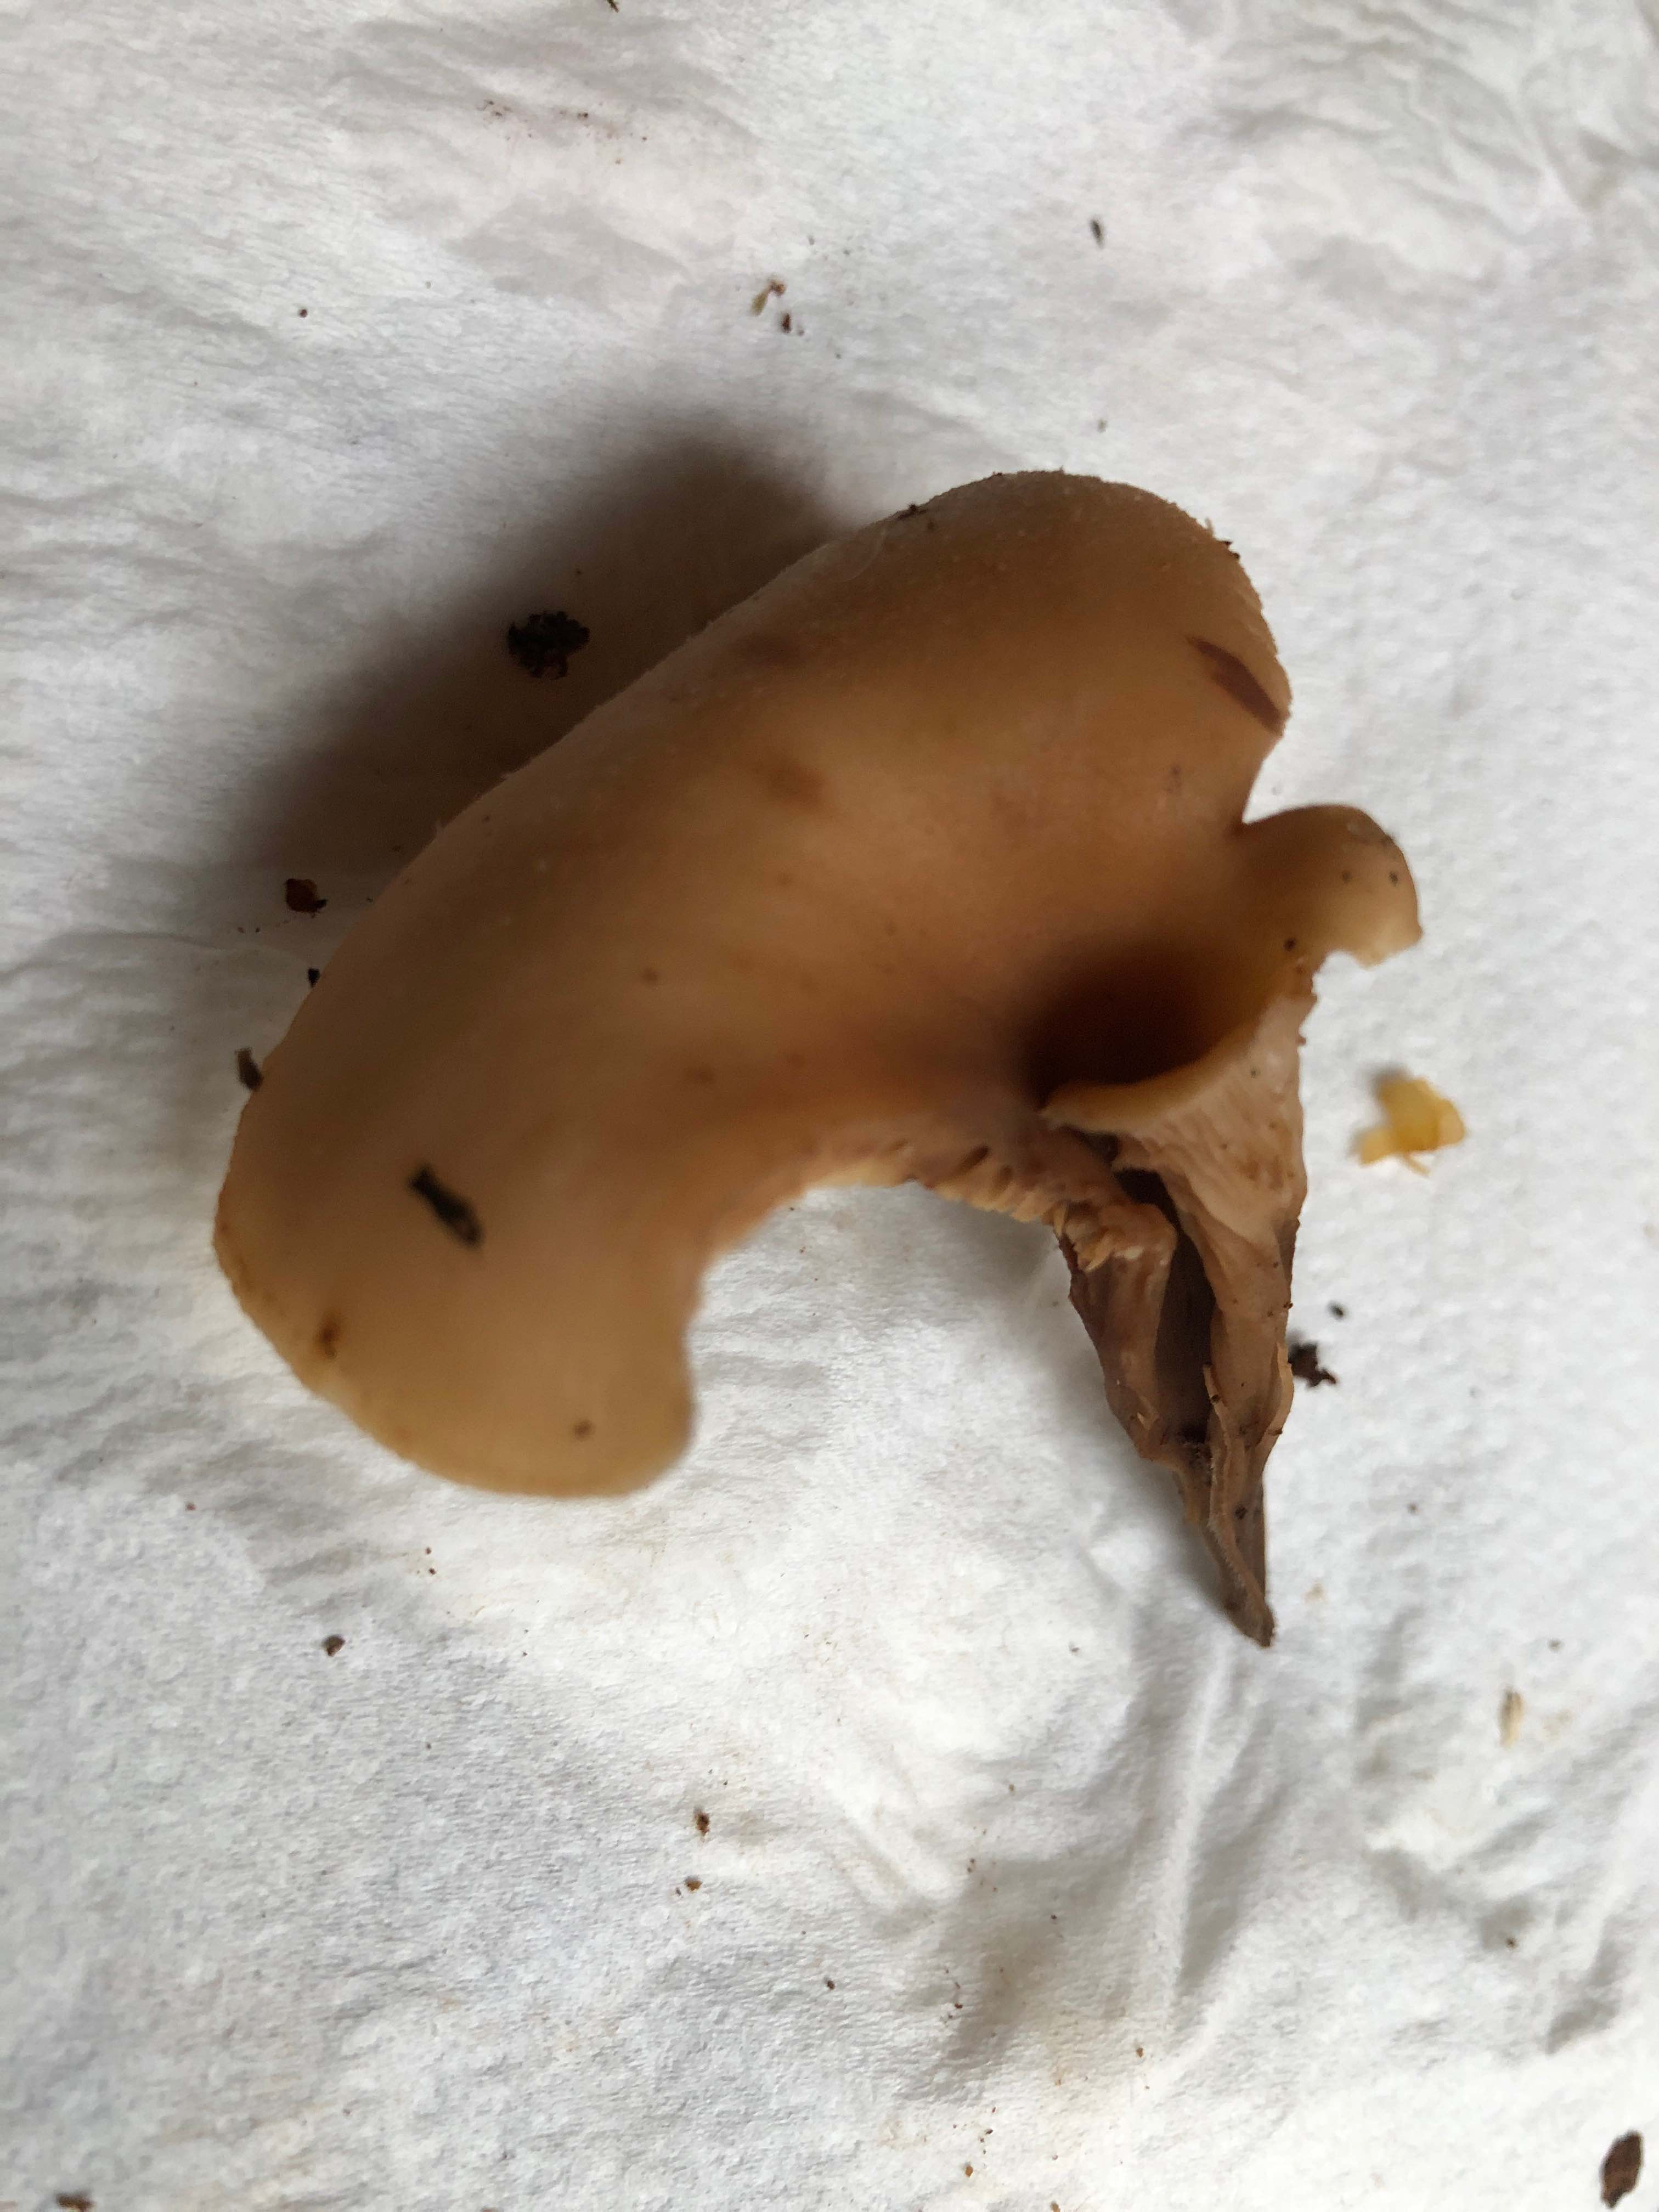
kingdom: Fungi
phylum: Basidiomycota
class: Agaricomycetes
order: Russulales
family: Auriscalpiaceae
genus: Lentinellus
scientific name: Lentinellus cochleatus
